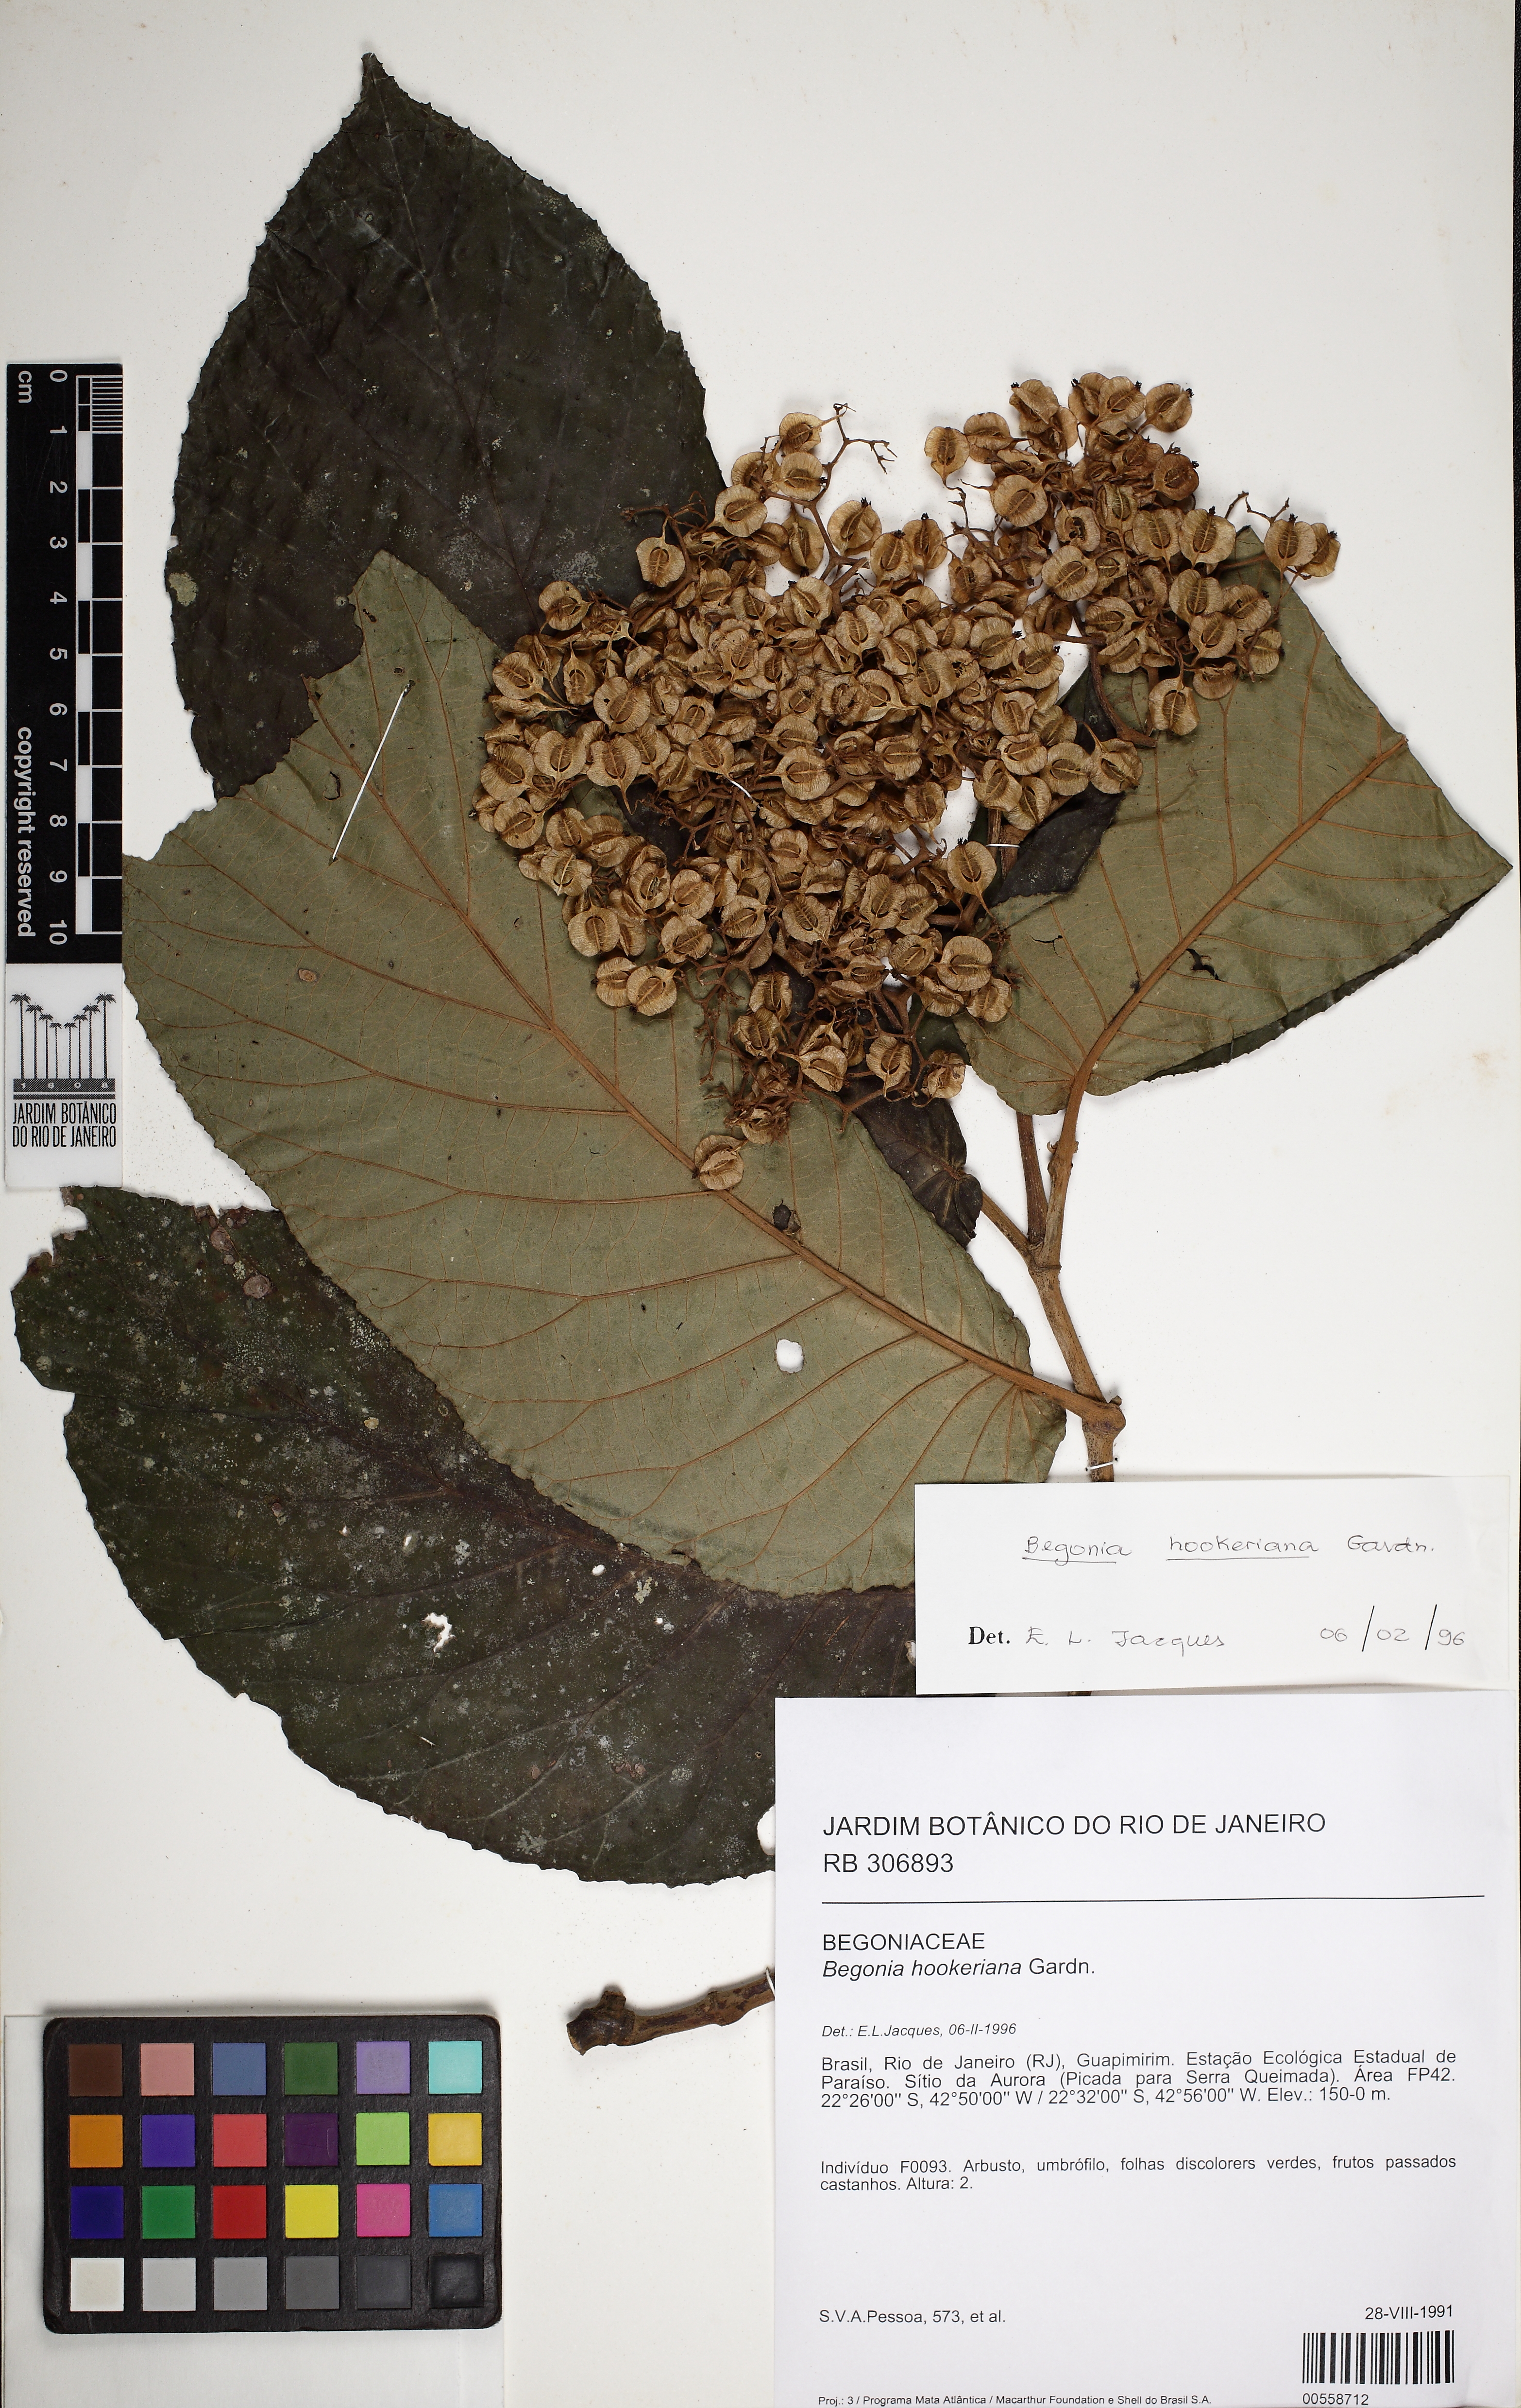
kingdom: Plantae
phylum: Tracheophyta
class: Magnoliopsida
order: Cucurbitales
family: Begoniaceae
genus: Begonia
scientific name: Begonia hookeriana
